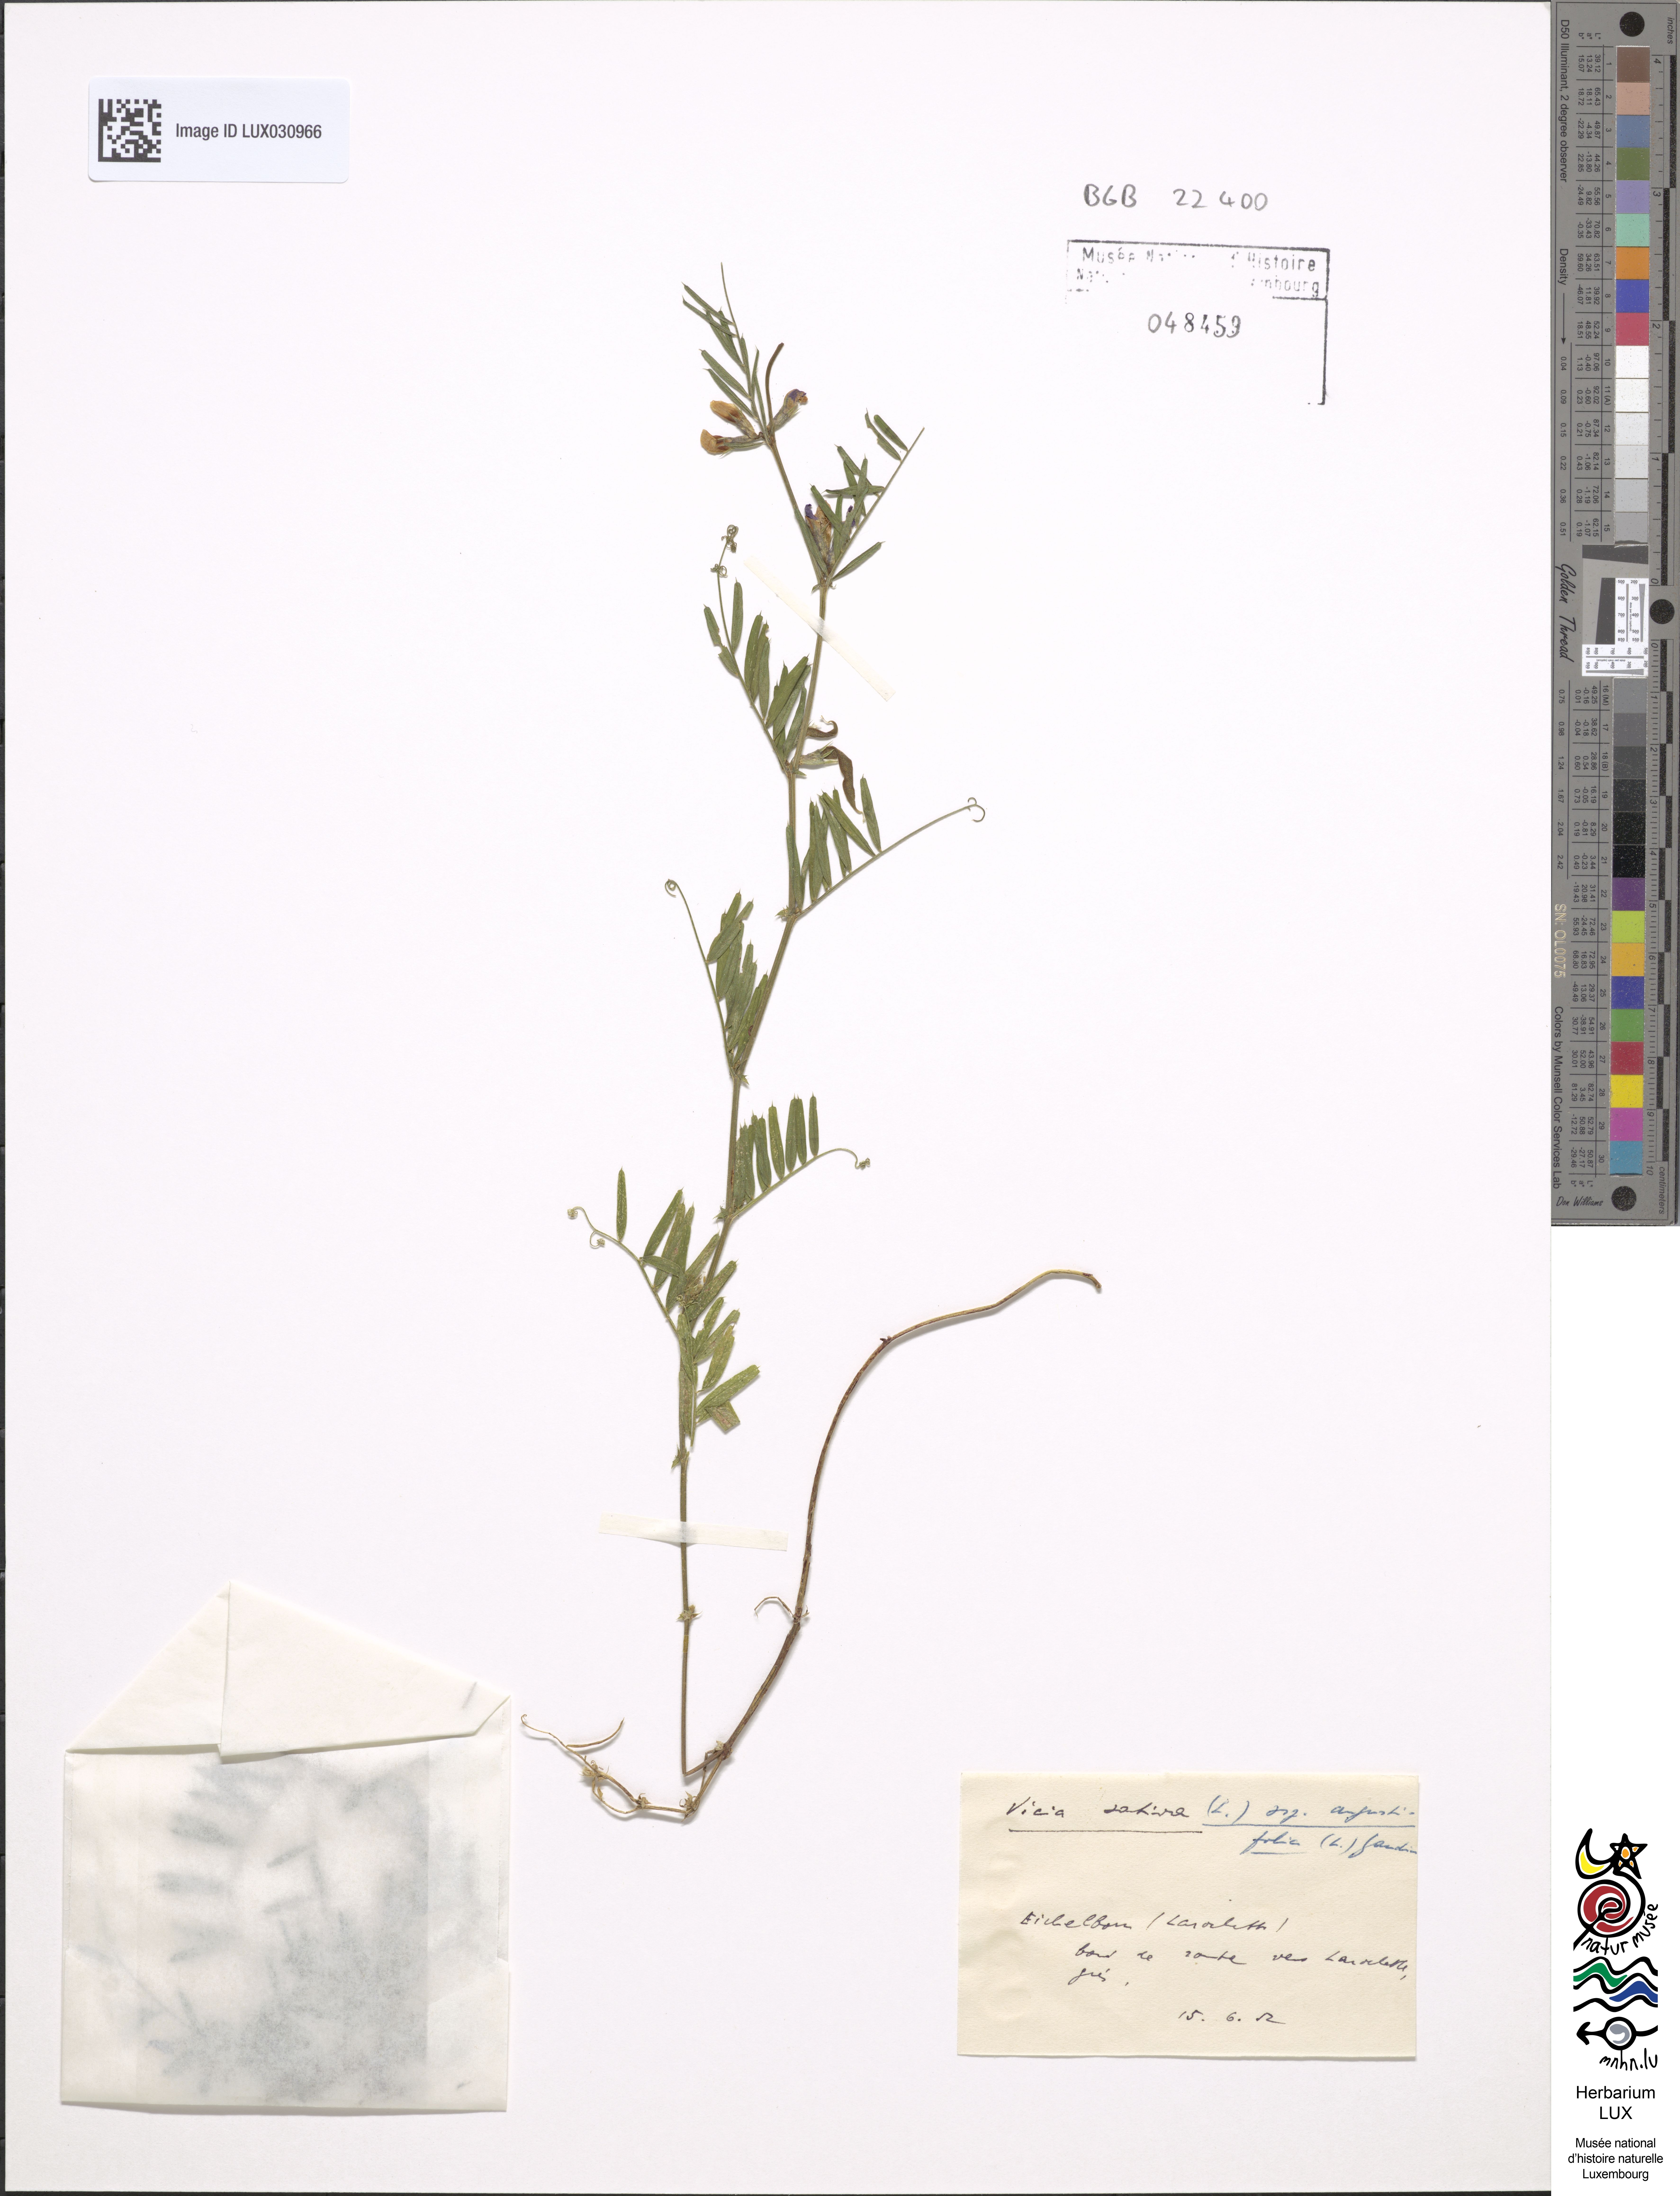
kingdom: Plantae
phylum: Tracheophyta
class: Magnoliopsida
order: Fabales
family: Fabaceae
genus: Vicia
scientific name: Vicia sativa
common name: Garden vetch
